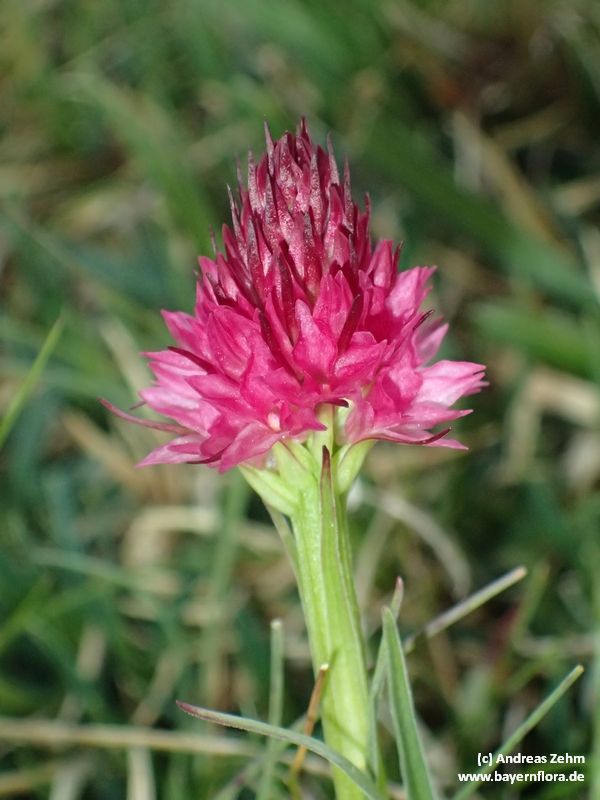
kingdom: Plantae
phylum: Tracheophyta
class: Liliopsida
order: Asparagales
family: Orchidaceae
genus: Gymnadenia
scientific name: Gymnadenia widderi
